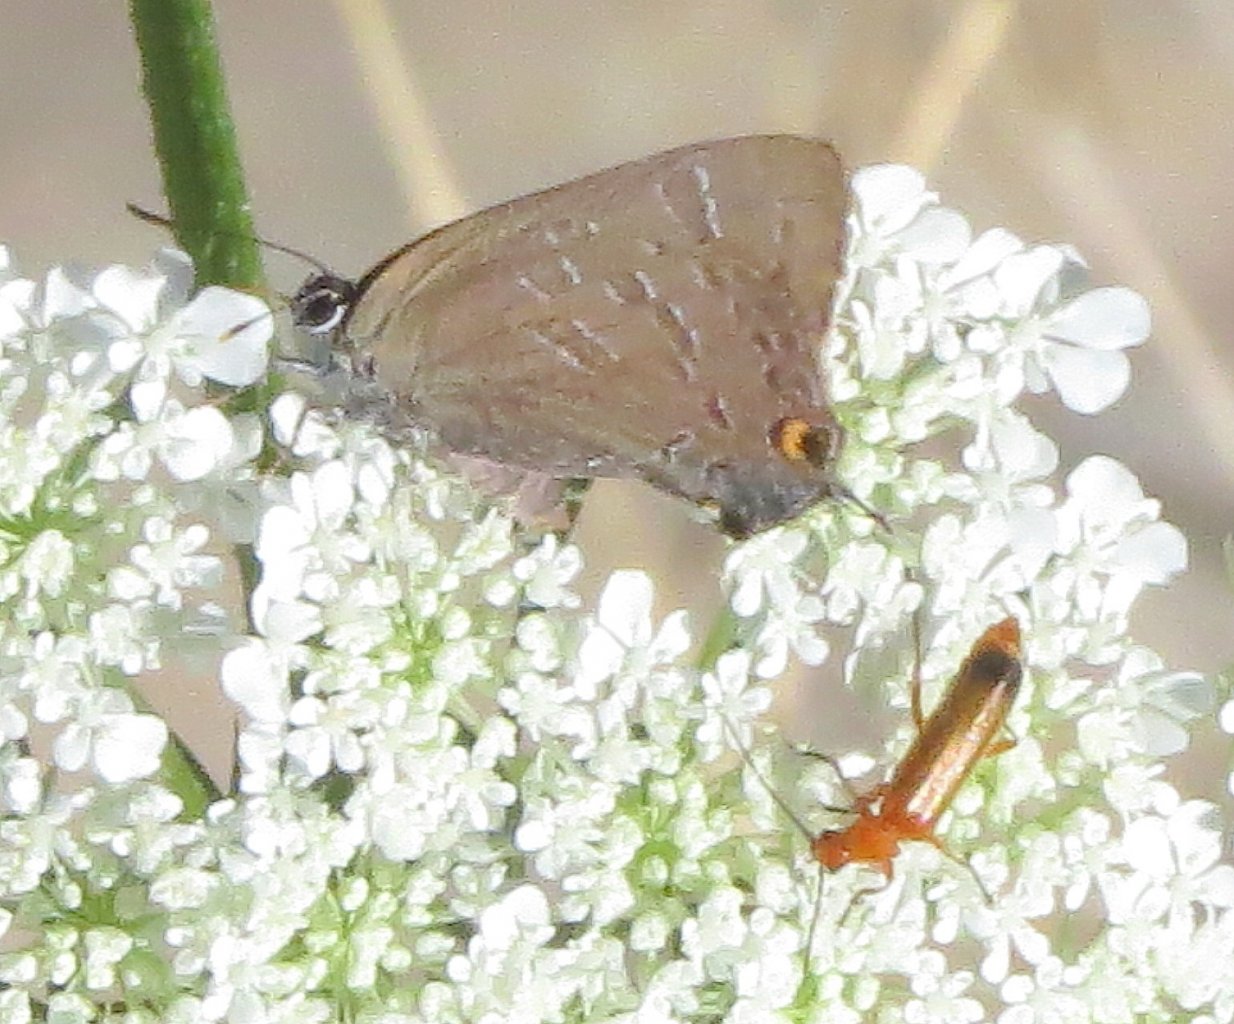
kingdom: Animalia
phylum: Arthropoda
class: Insecta
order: Lepidoptera
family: Lycaenidae
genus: Strymon
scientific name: Strymon caryaevorus
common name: Hickory Hairstreak
